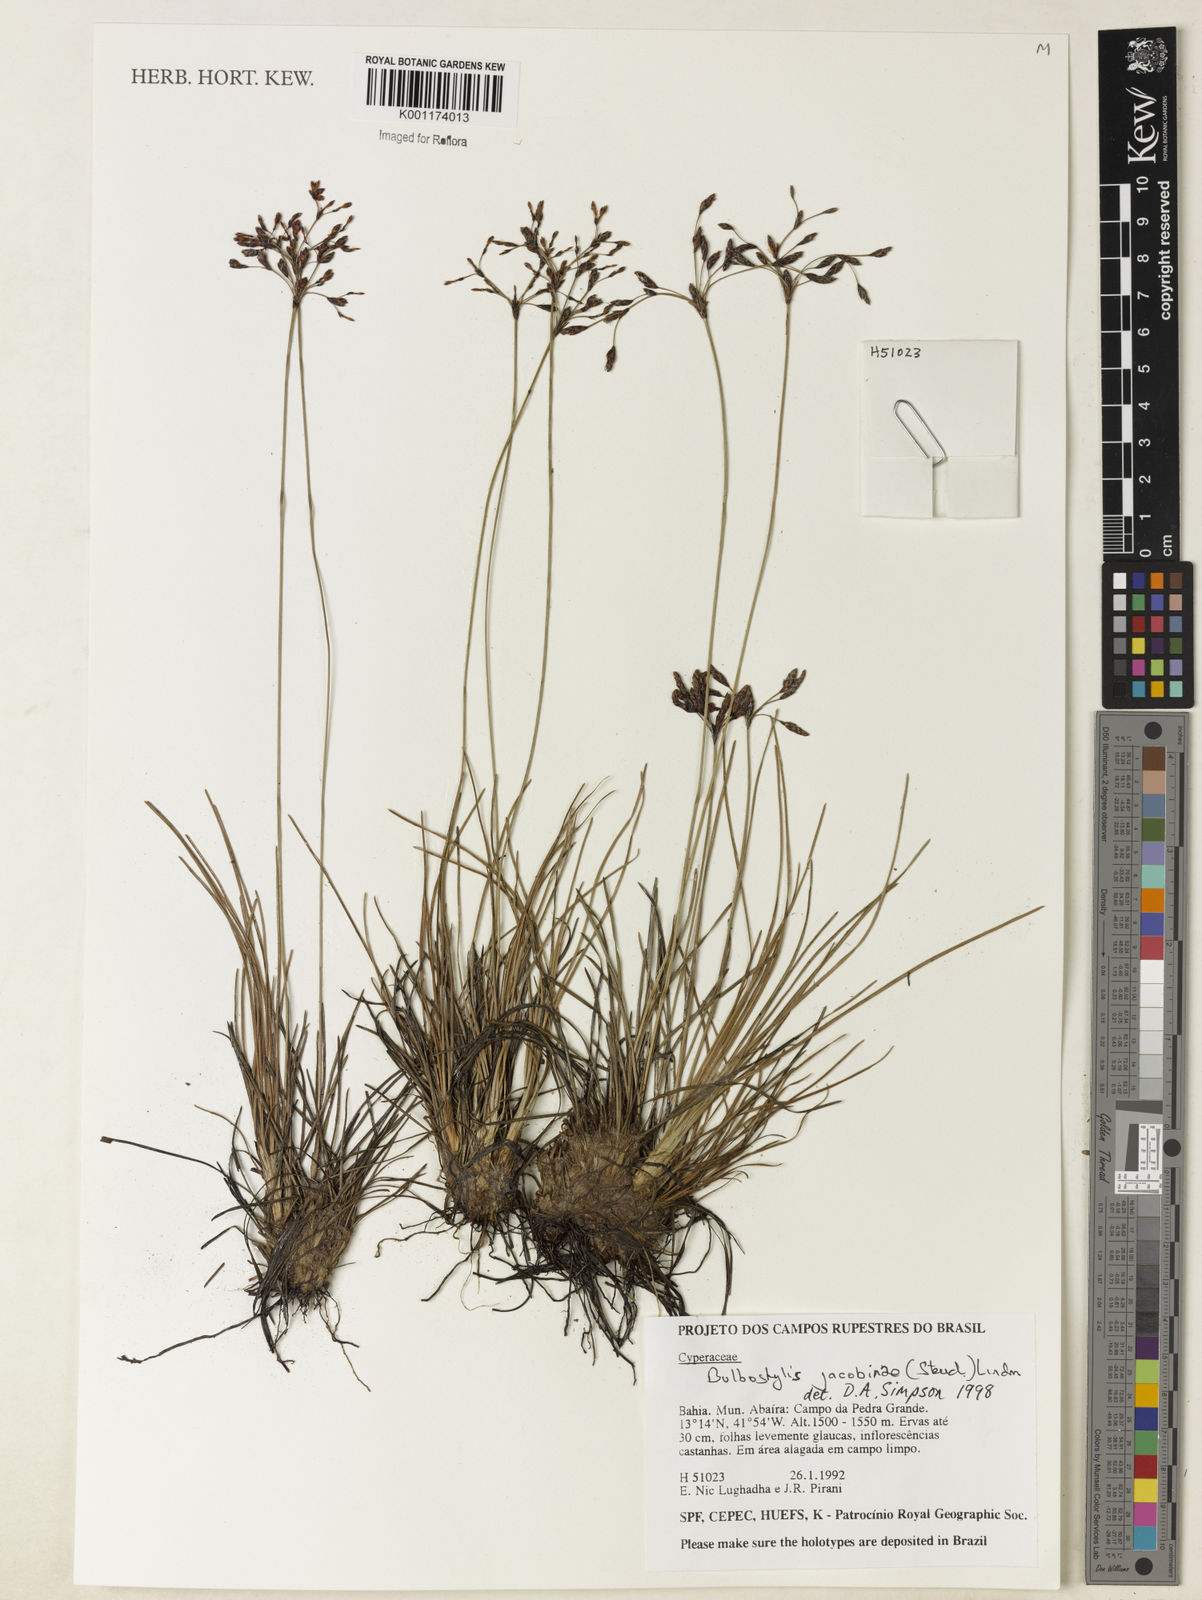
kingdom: Plantae
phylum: Tracheophyta
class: Liliopsida
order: Poales
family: Cyperaceae
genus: Bulbostylis
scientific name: Bulbostylis jacobinae
